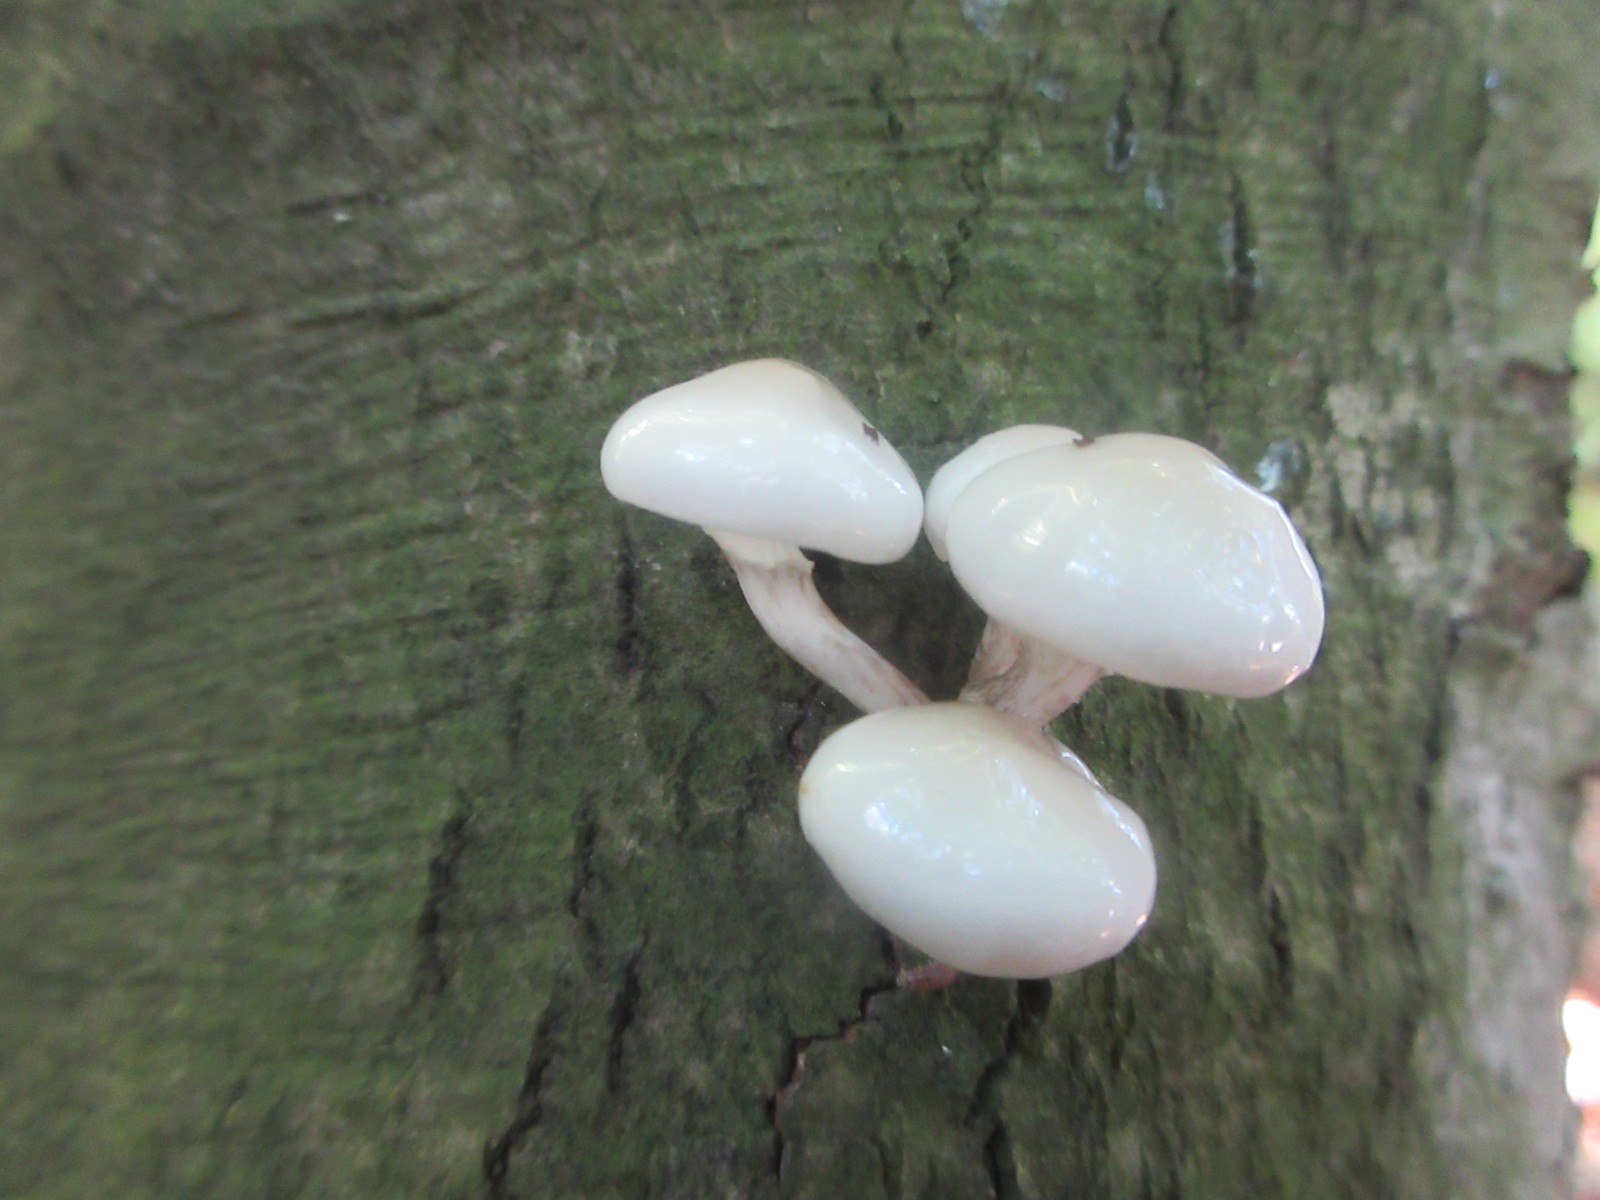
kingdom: Fungi
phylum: Basidiomycota
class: Agaricomycetes
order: Agaricales
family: Physalacriaceae
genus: Mucidula
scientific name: Mucidula mucida
